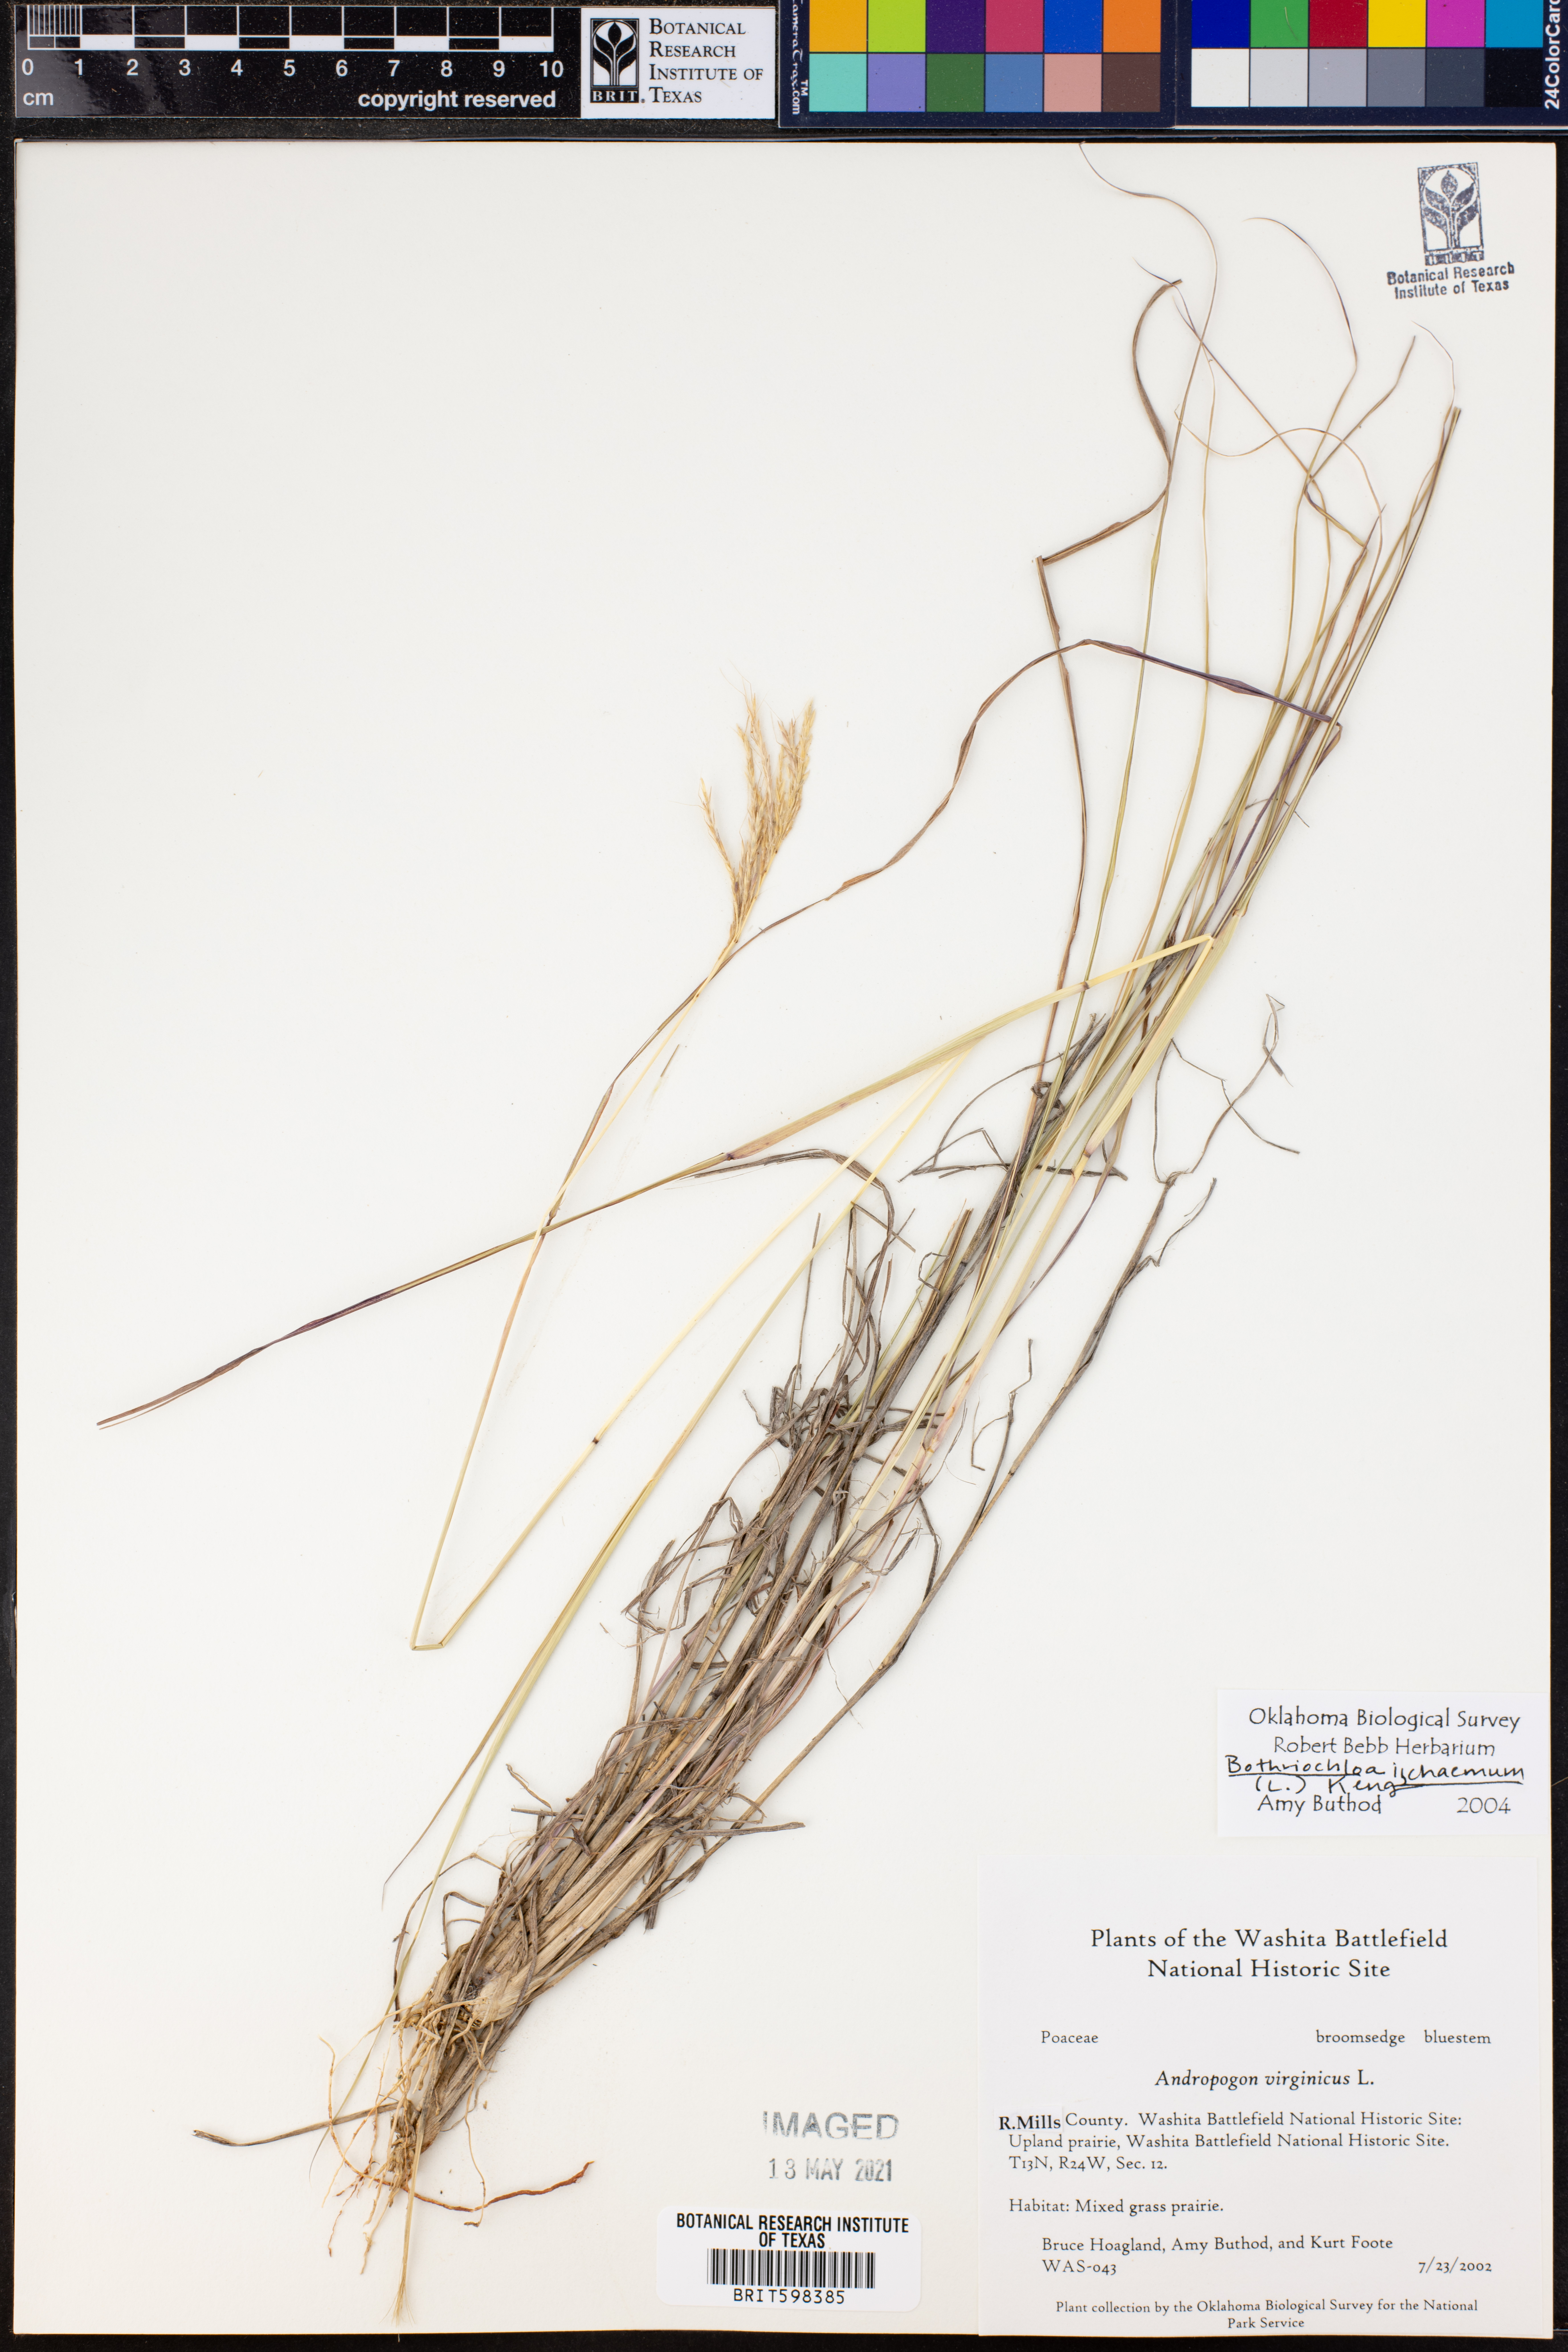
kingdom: Plantae
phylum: Tracheophyta
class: Liliopsida
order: Poales
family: Poaceae
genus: Bothriochloa
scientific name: Bothriochloa ischaemum
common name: Yellow bluestem
